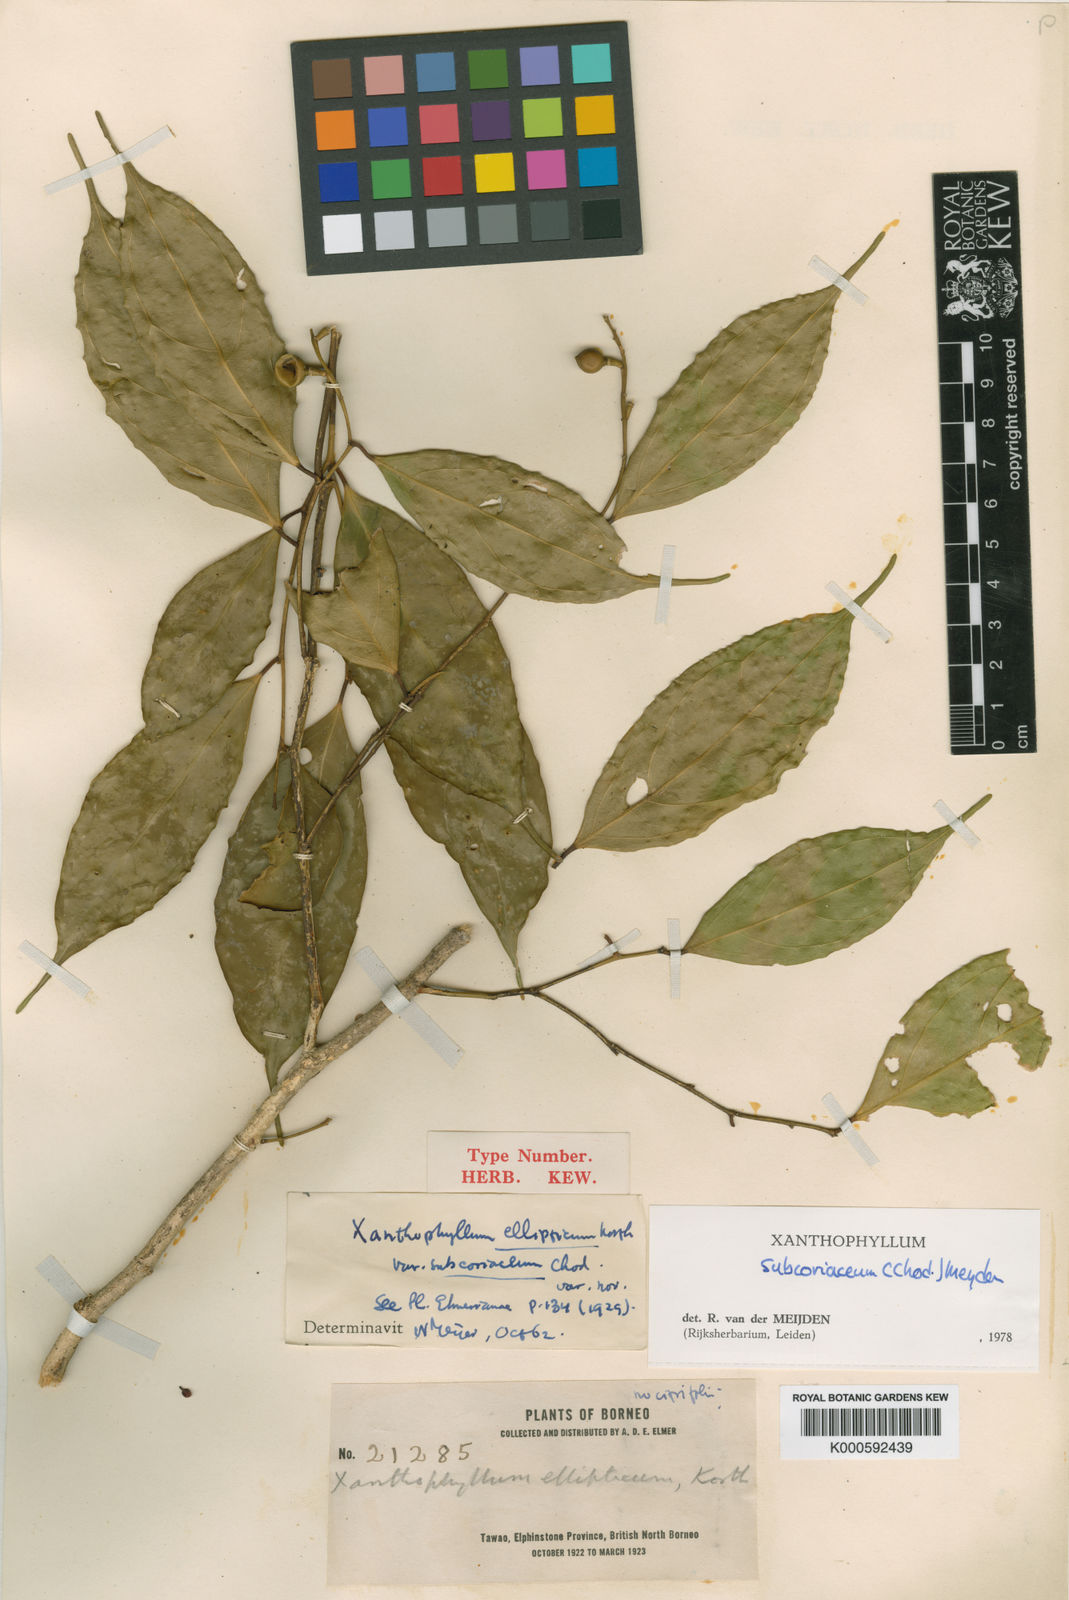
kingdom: Plantae
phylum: Tracheophyta
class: Magnoliopsida
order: Fabales
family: Polygalaceae
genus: Xanthophyllum
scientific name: Xanthophyllum subcoriaceum
